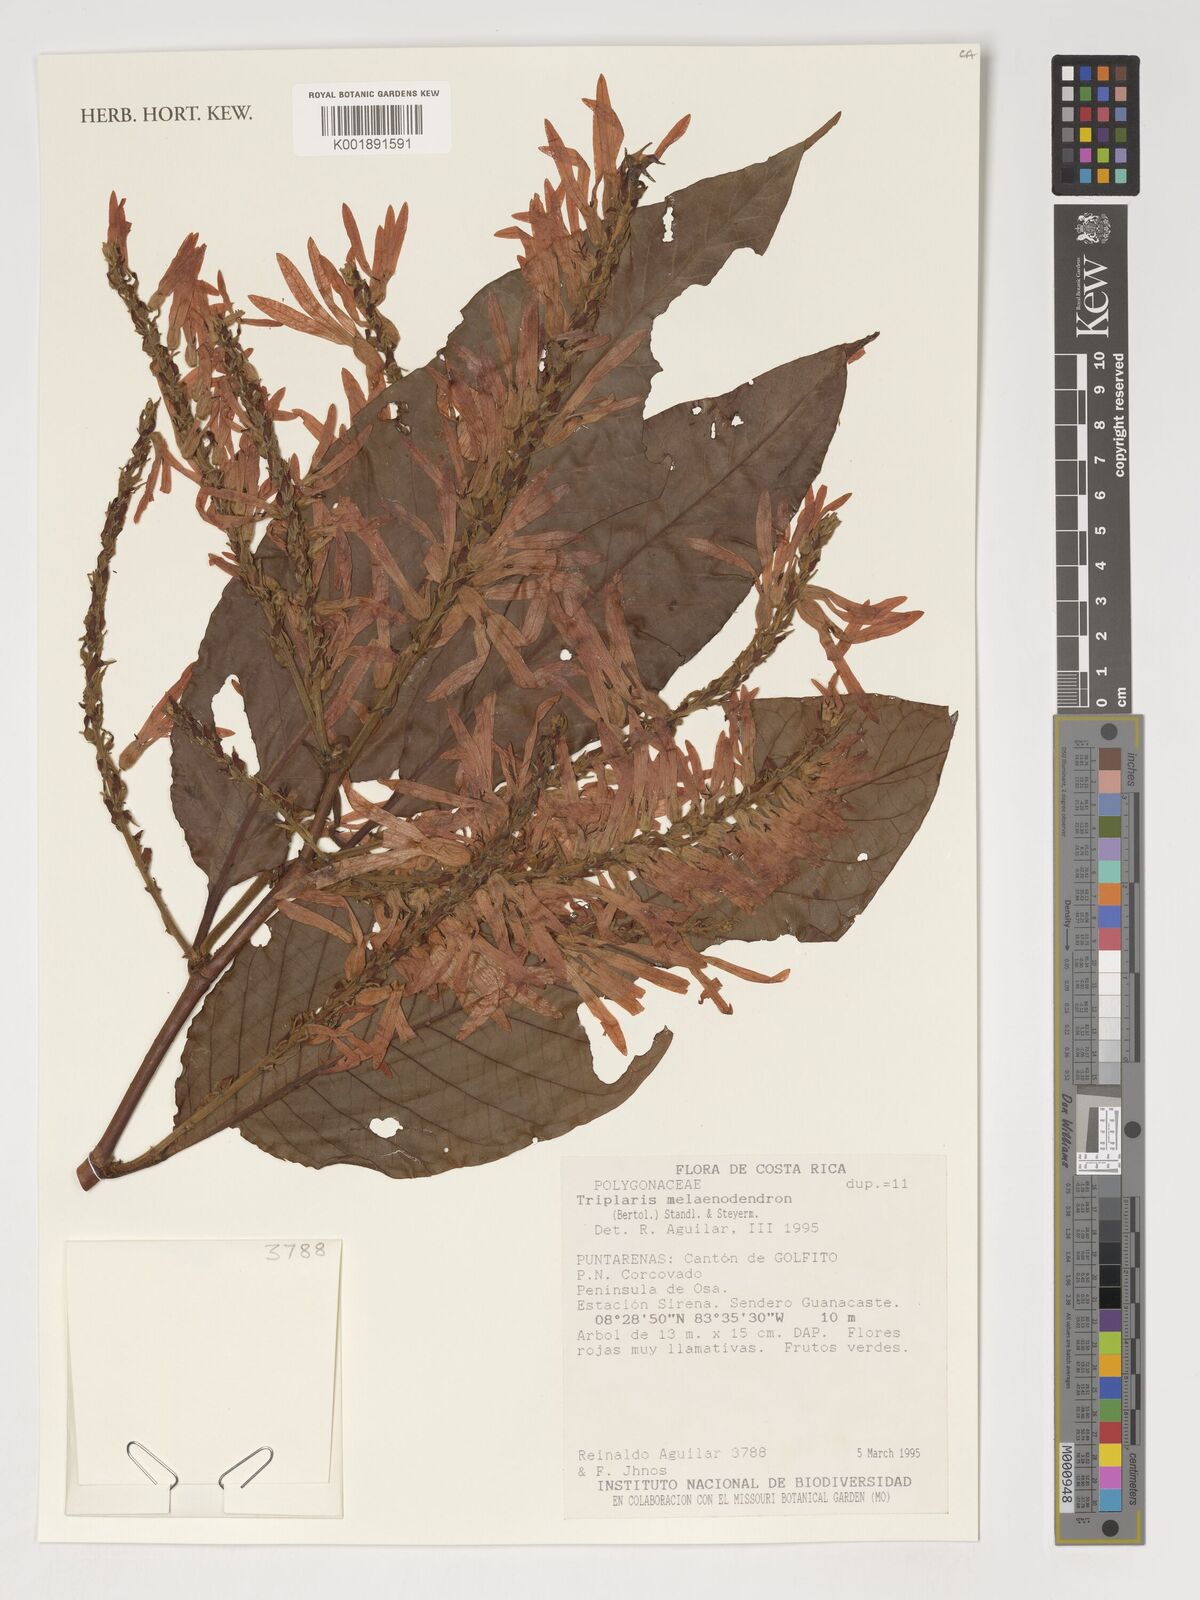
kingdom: Plantae
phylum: Tracheophyta
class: Magnoliopsida
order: Caryophyllales
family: Polygonaceae
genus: Triplaris
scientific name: Triplaris melaenodendron
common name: Long john
